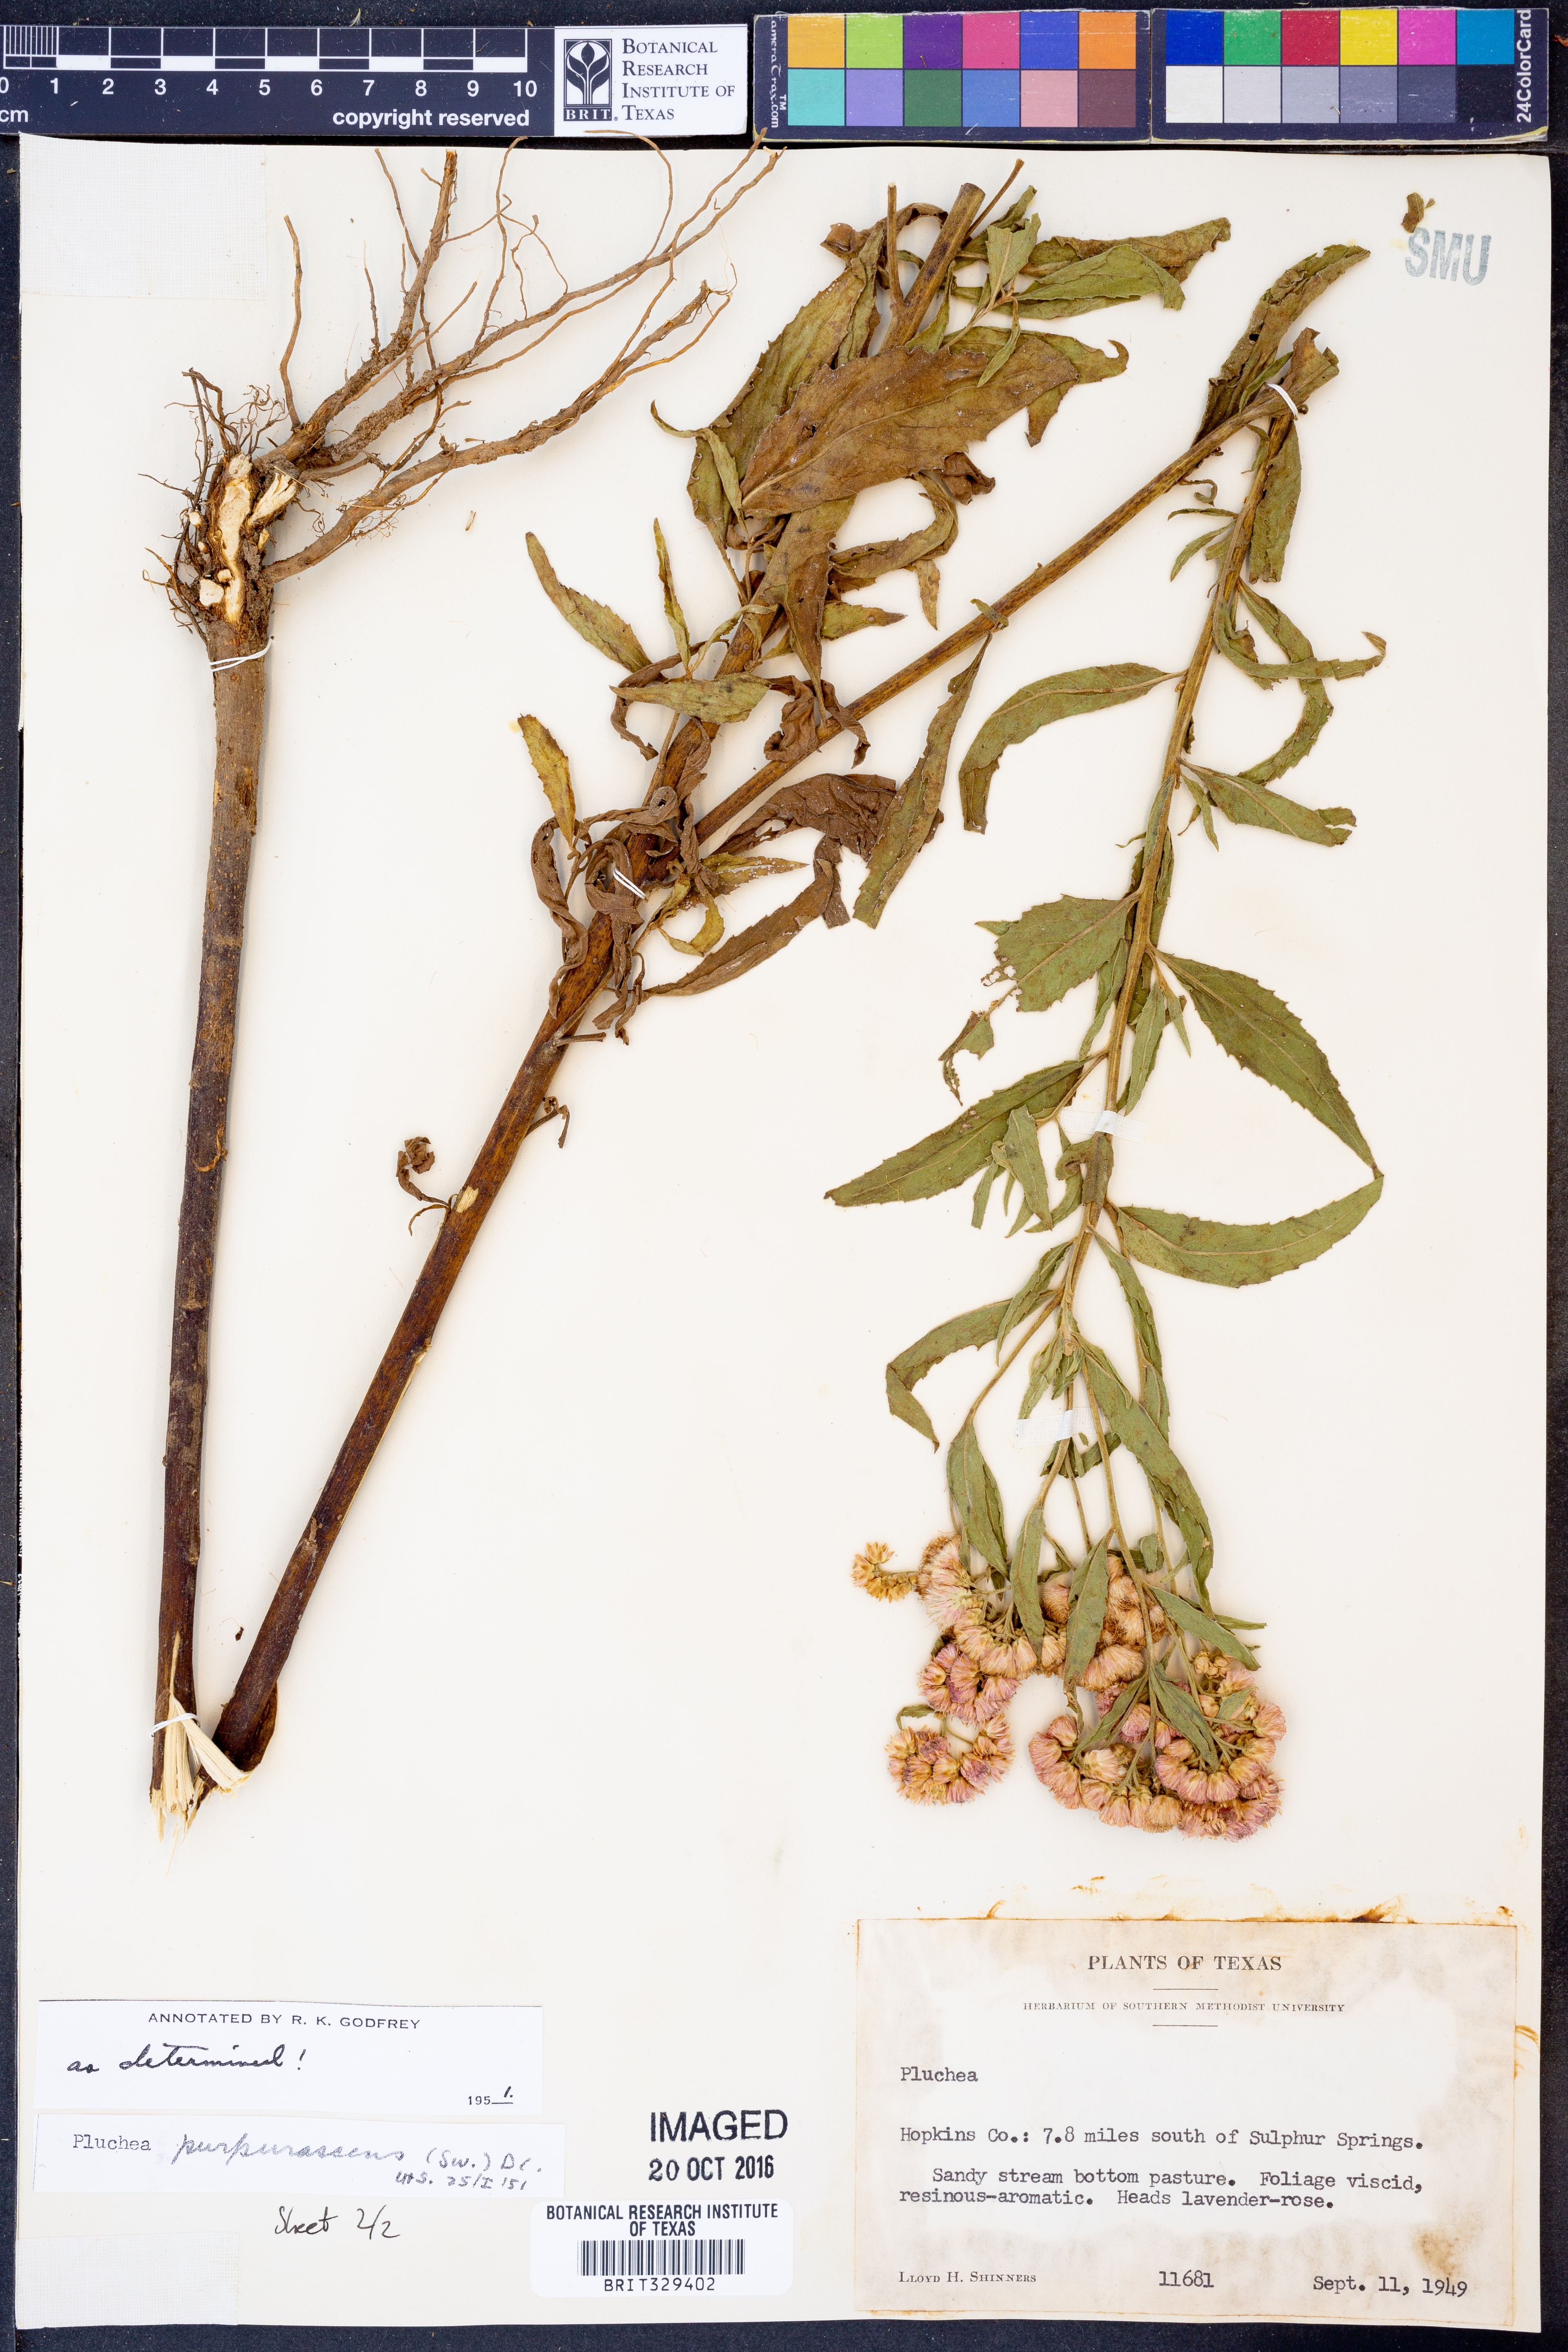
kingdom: Plantae
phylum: Tracheophyta
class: Magnoliopsida
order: Asterales
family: Asteraceae
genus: Pluchea
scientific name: Pluchea odorata
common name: Saltmarsh fleabane
